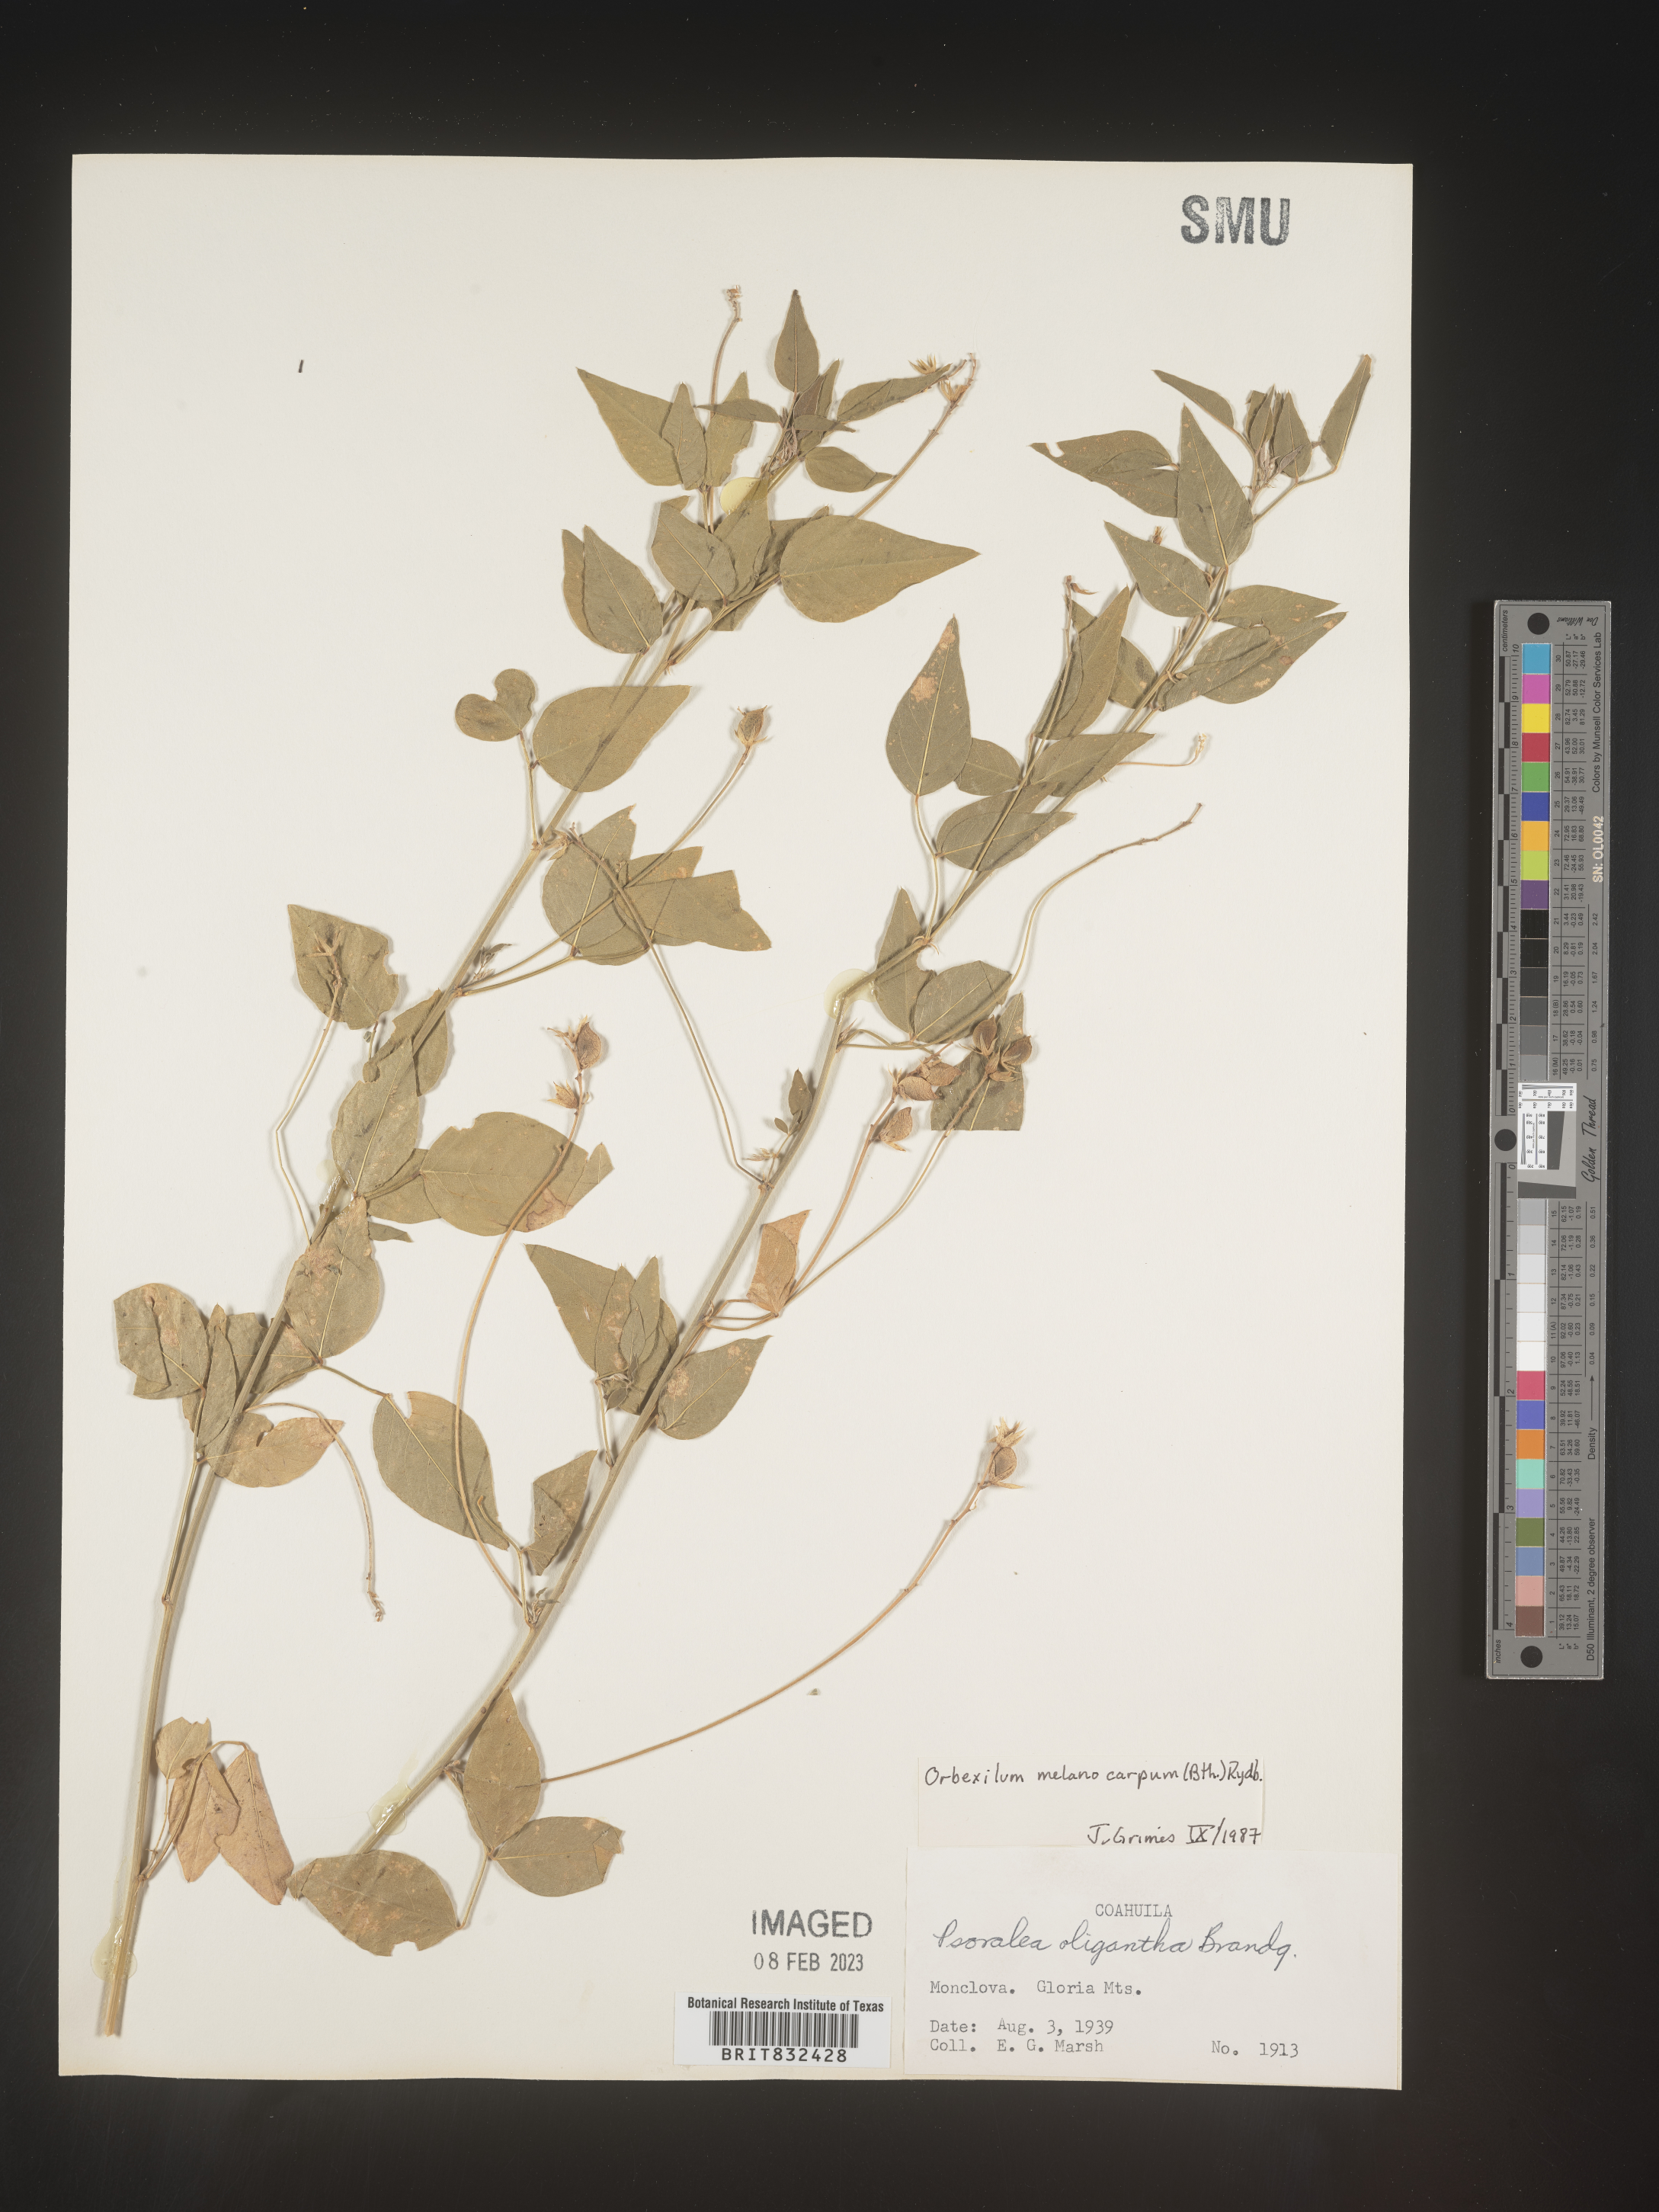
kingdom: Plantae
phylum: Tracheophyta
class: Magnoliopsida
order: Fabales
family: Fabaceae
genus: Psoralea
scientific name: Psoralea
